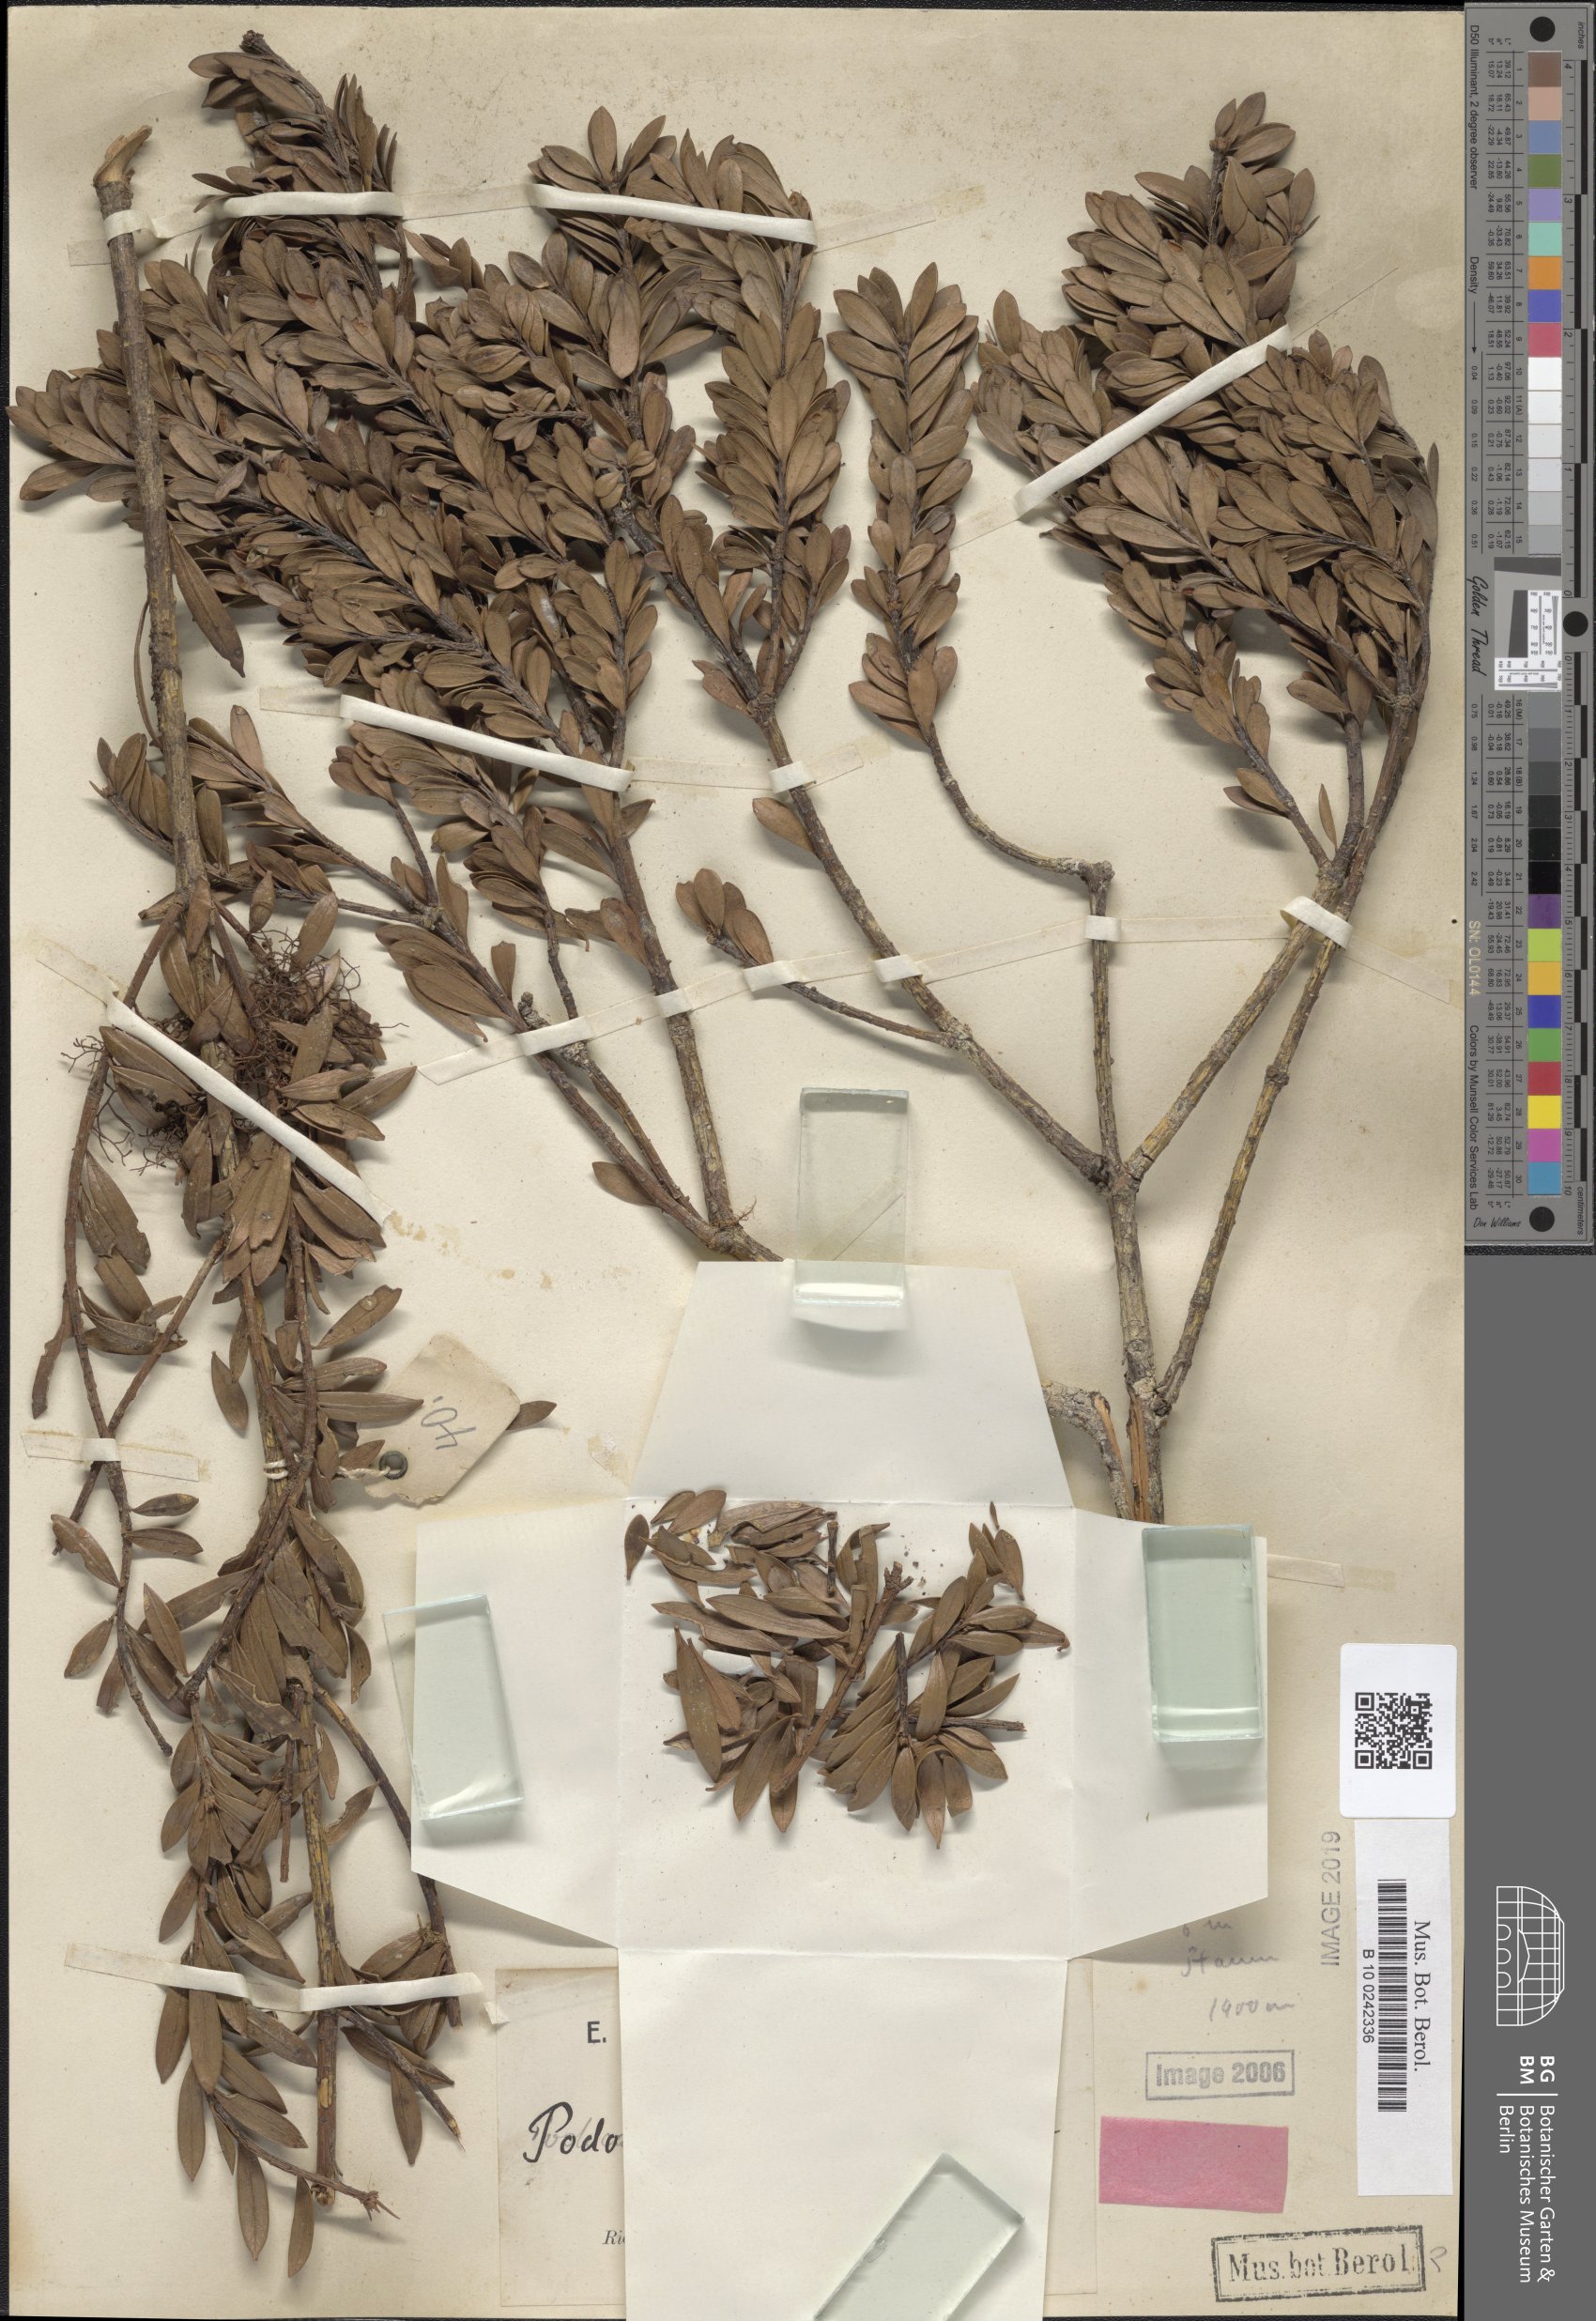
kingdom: Plantae
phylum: Tracheophyta
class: Pinopsida
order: Pinales
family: Podocarpaceae
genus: Podocarpus
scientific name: Podocarpus roraimae
